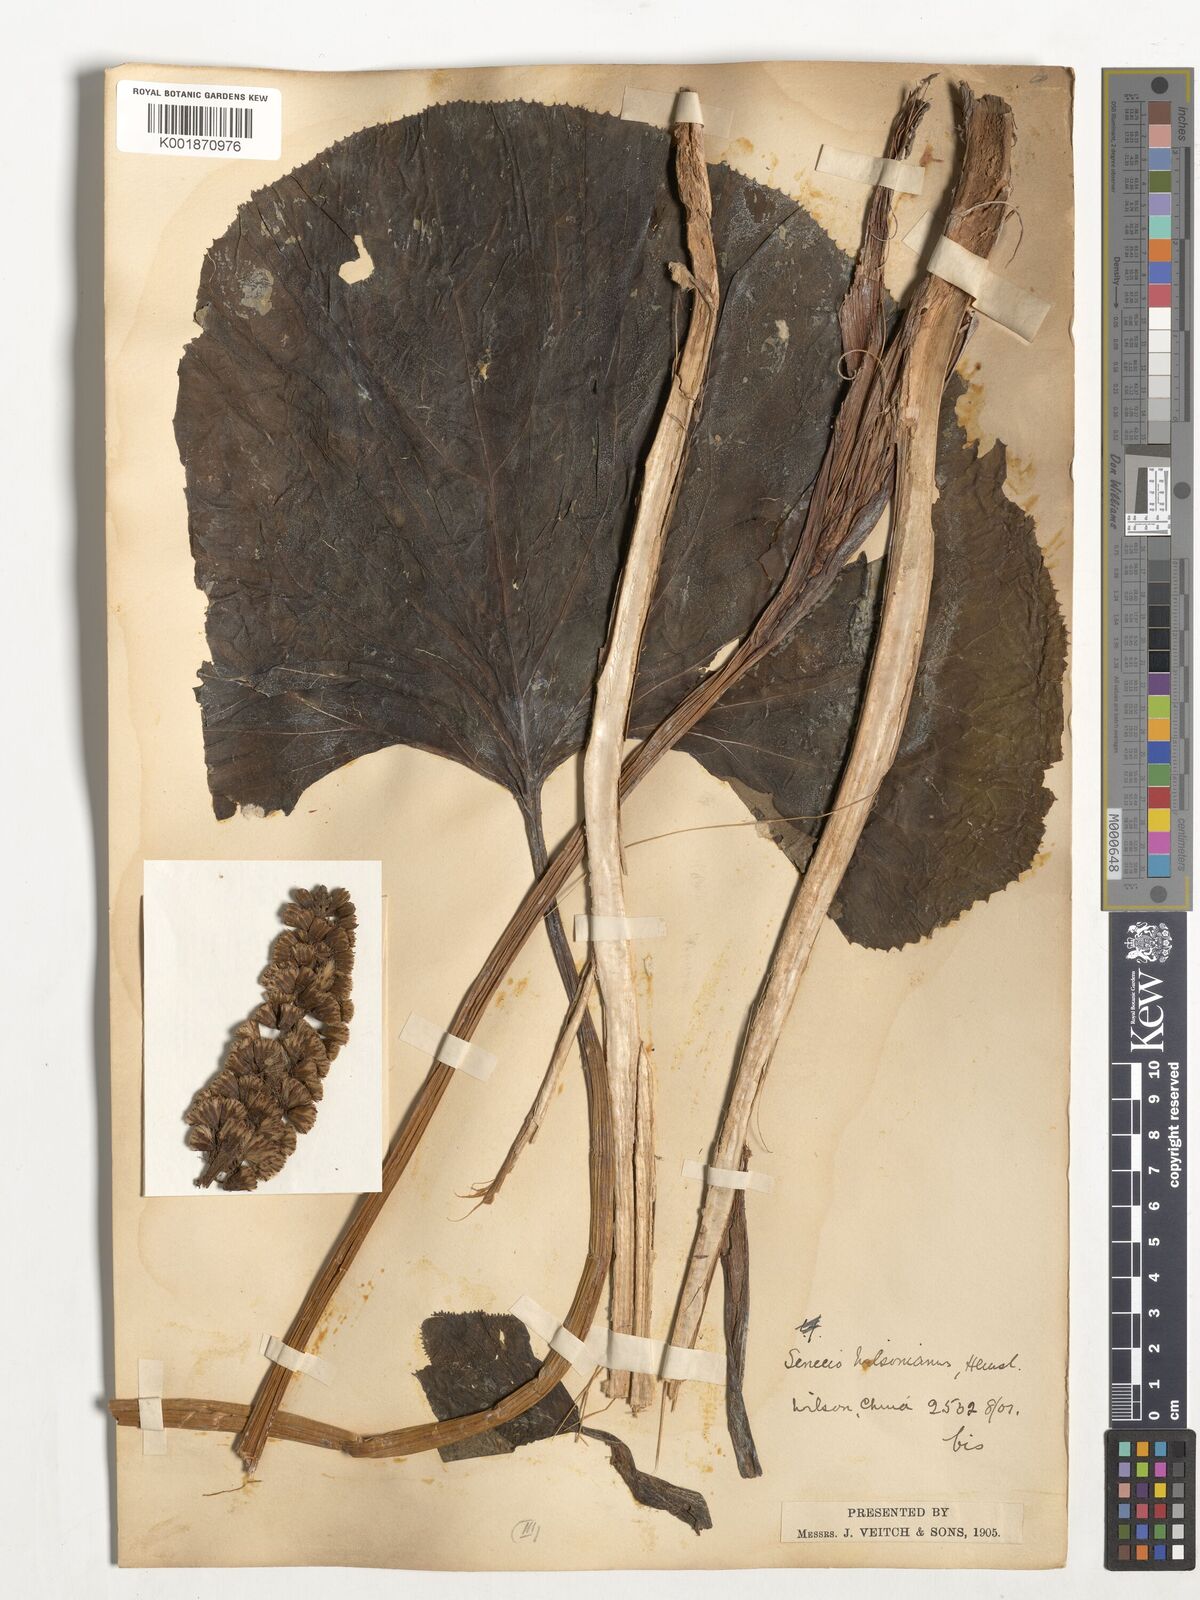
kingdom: Plantae
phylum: Tracheophyta
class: Magnoliopsida
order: Asterales
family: Asteraceae
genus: Ligularia
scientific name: Ligularia wilsoniana
